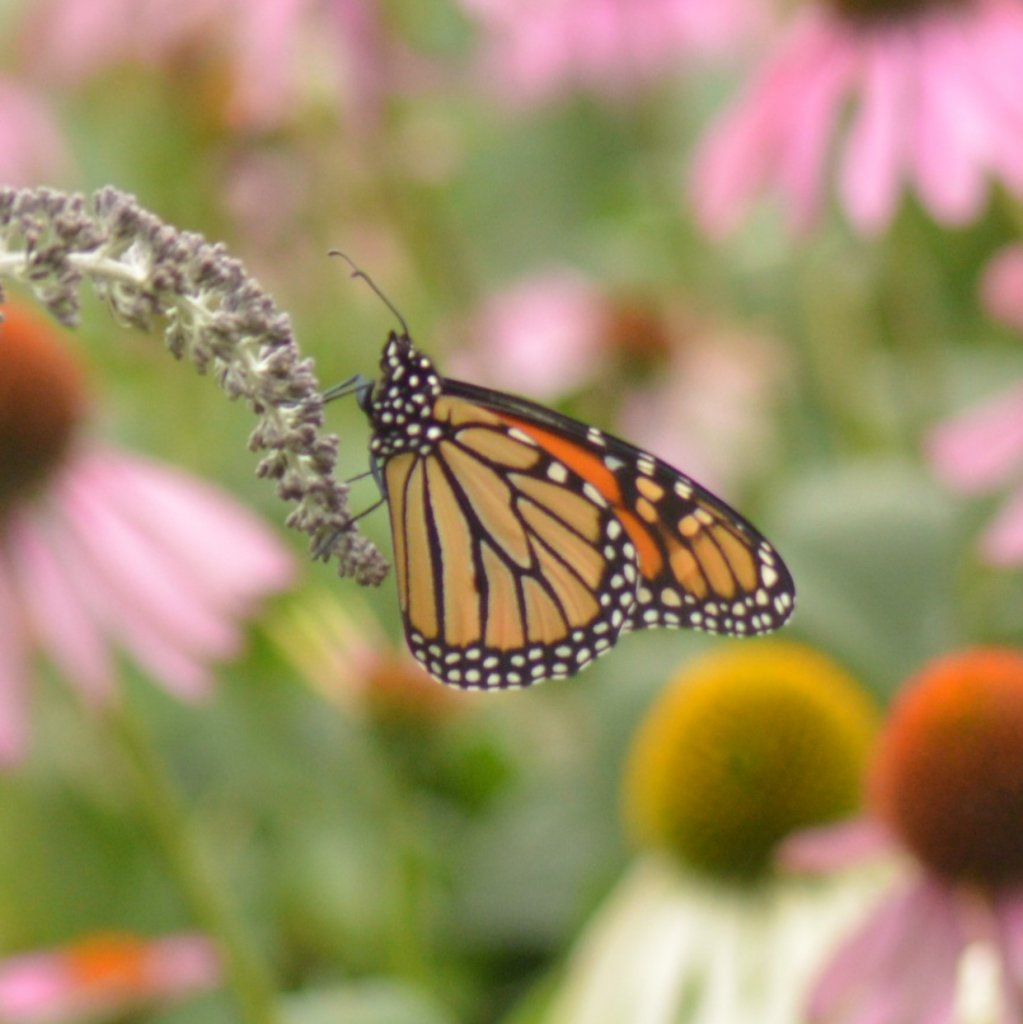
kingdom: Animalia
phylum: Arthropoda
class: Insecta
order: Lepidoptera
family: Nymphalidae
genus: Danaus
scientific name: Danaus plexippus
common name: Monarch
